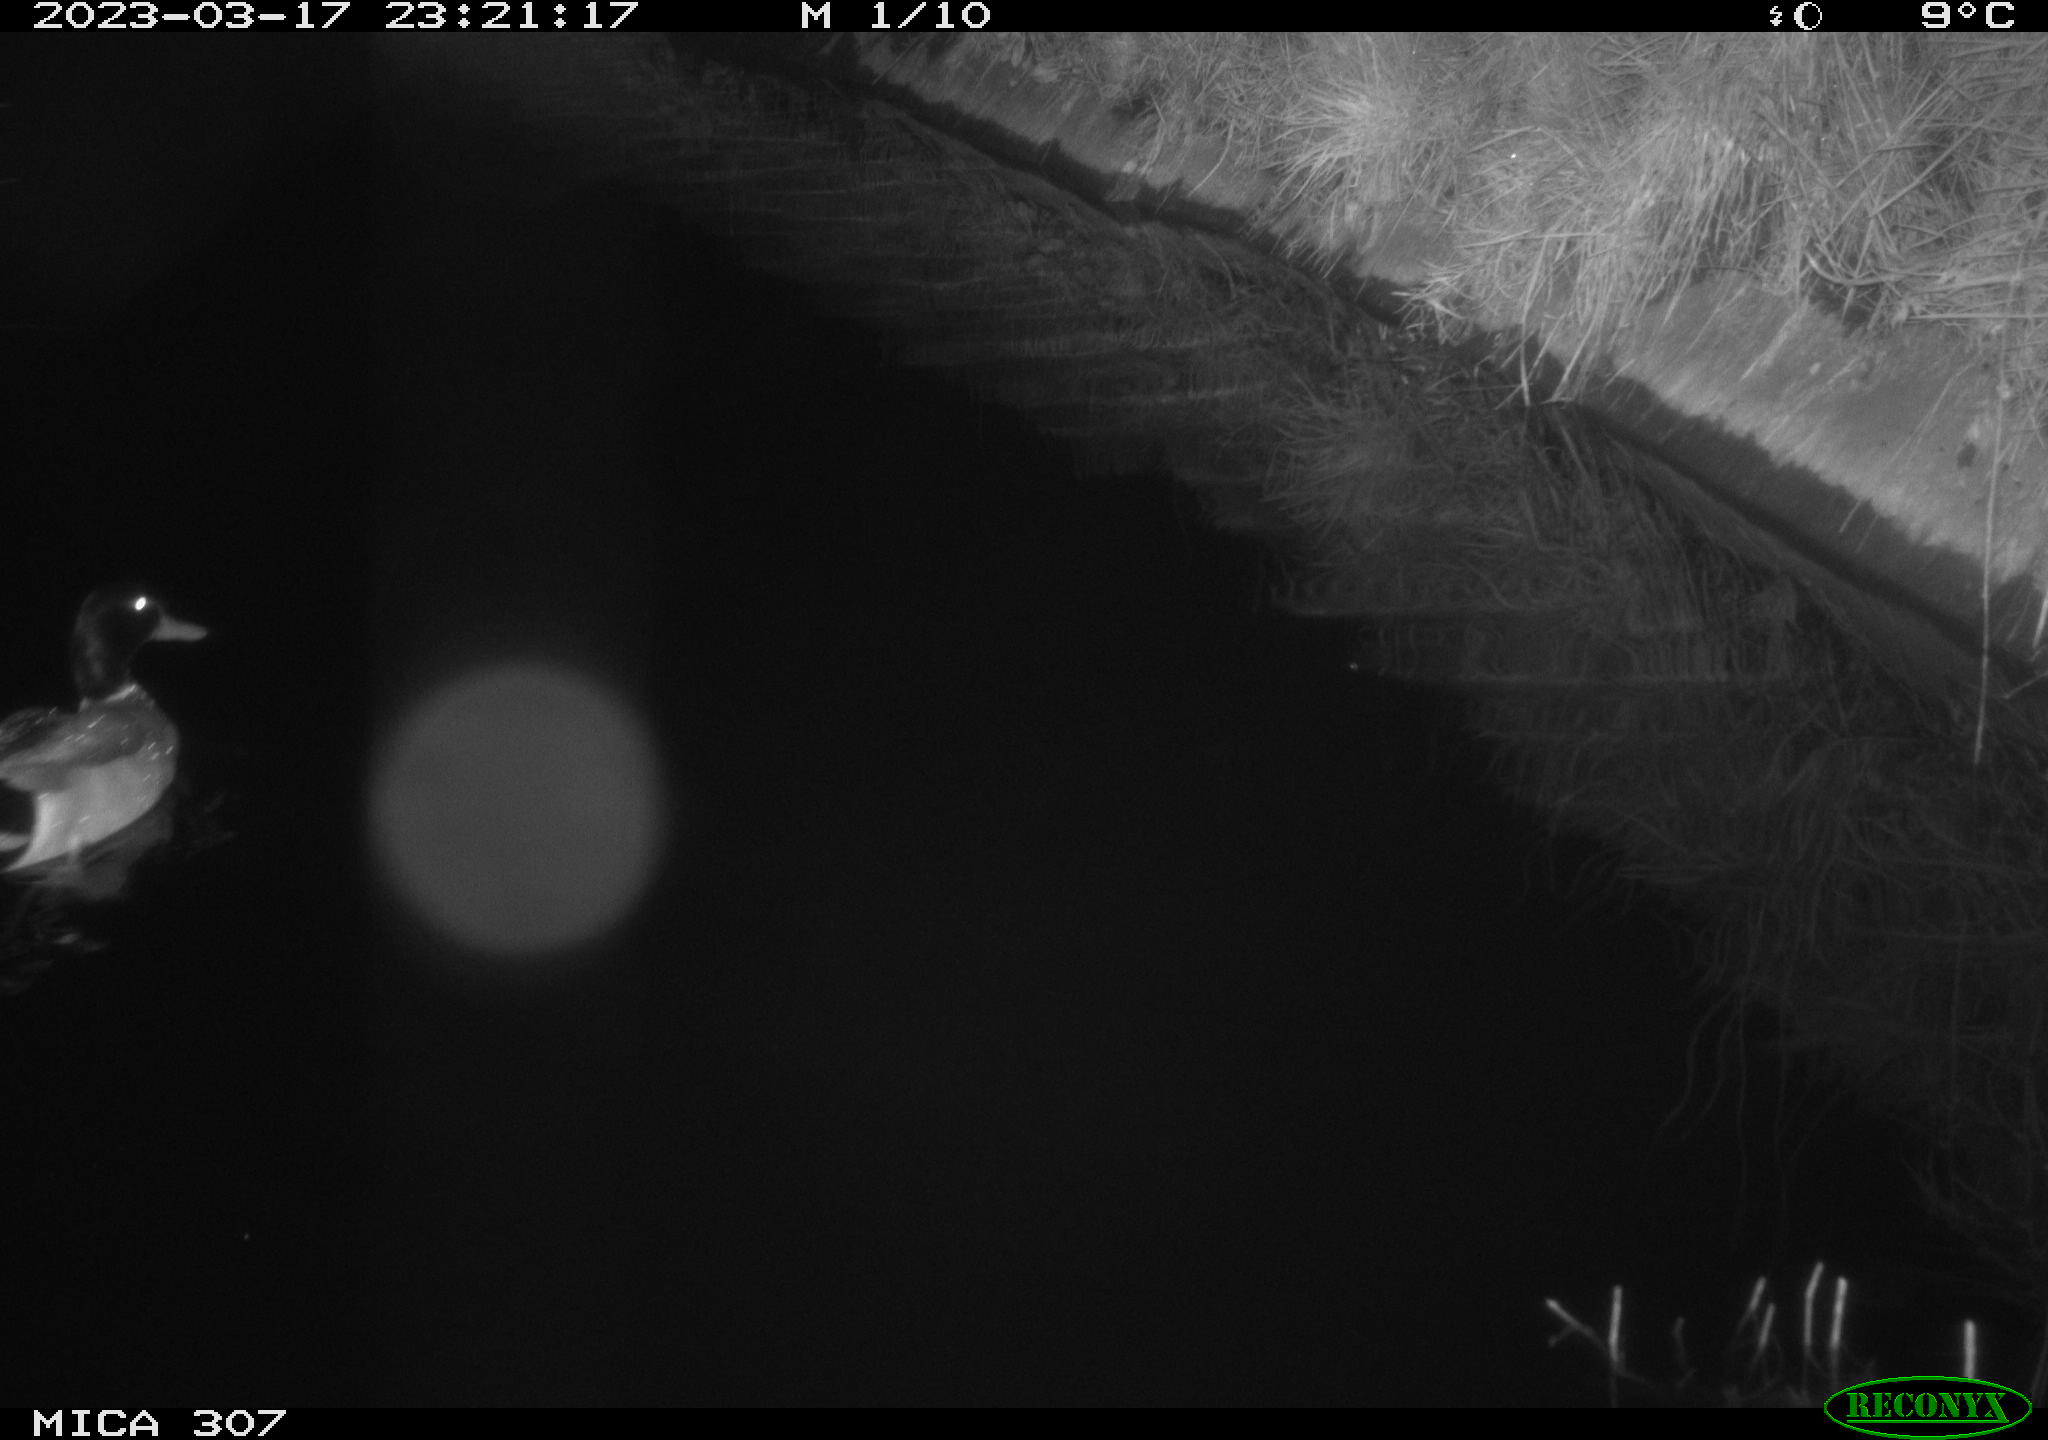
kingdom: Animalia
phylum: Chordata
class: Aves
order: Anseriformes
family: Anatidae
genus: Anas
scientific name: Anas
